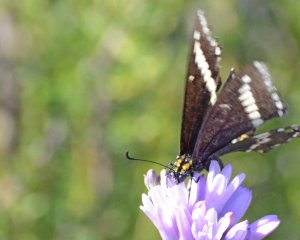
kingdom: Animalia
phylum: Arthropoda
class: Insecta
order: Lepidoptera
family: Papilionidae
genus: Papilio
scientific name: Papilio indra
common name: Indra Swallowtail
